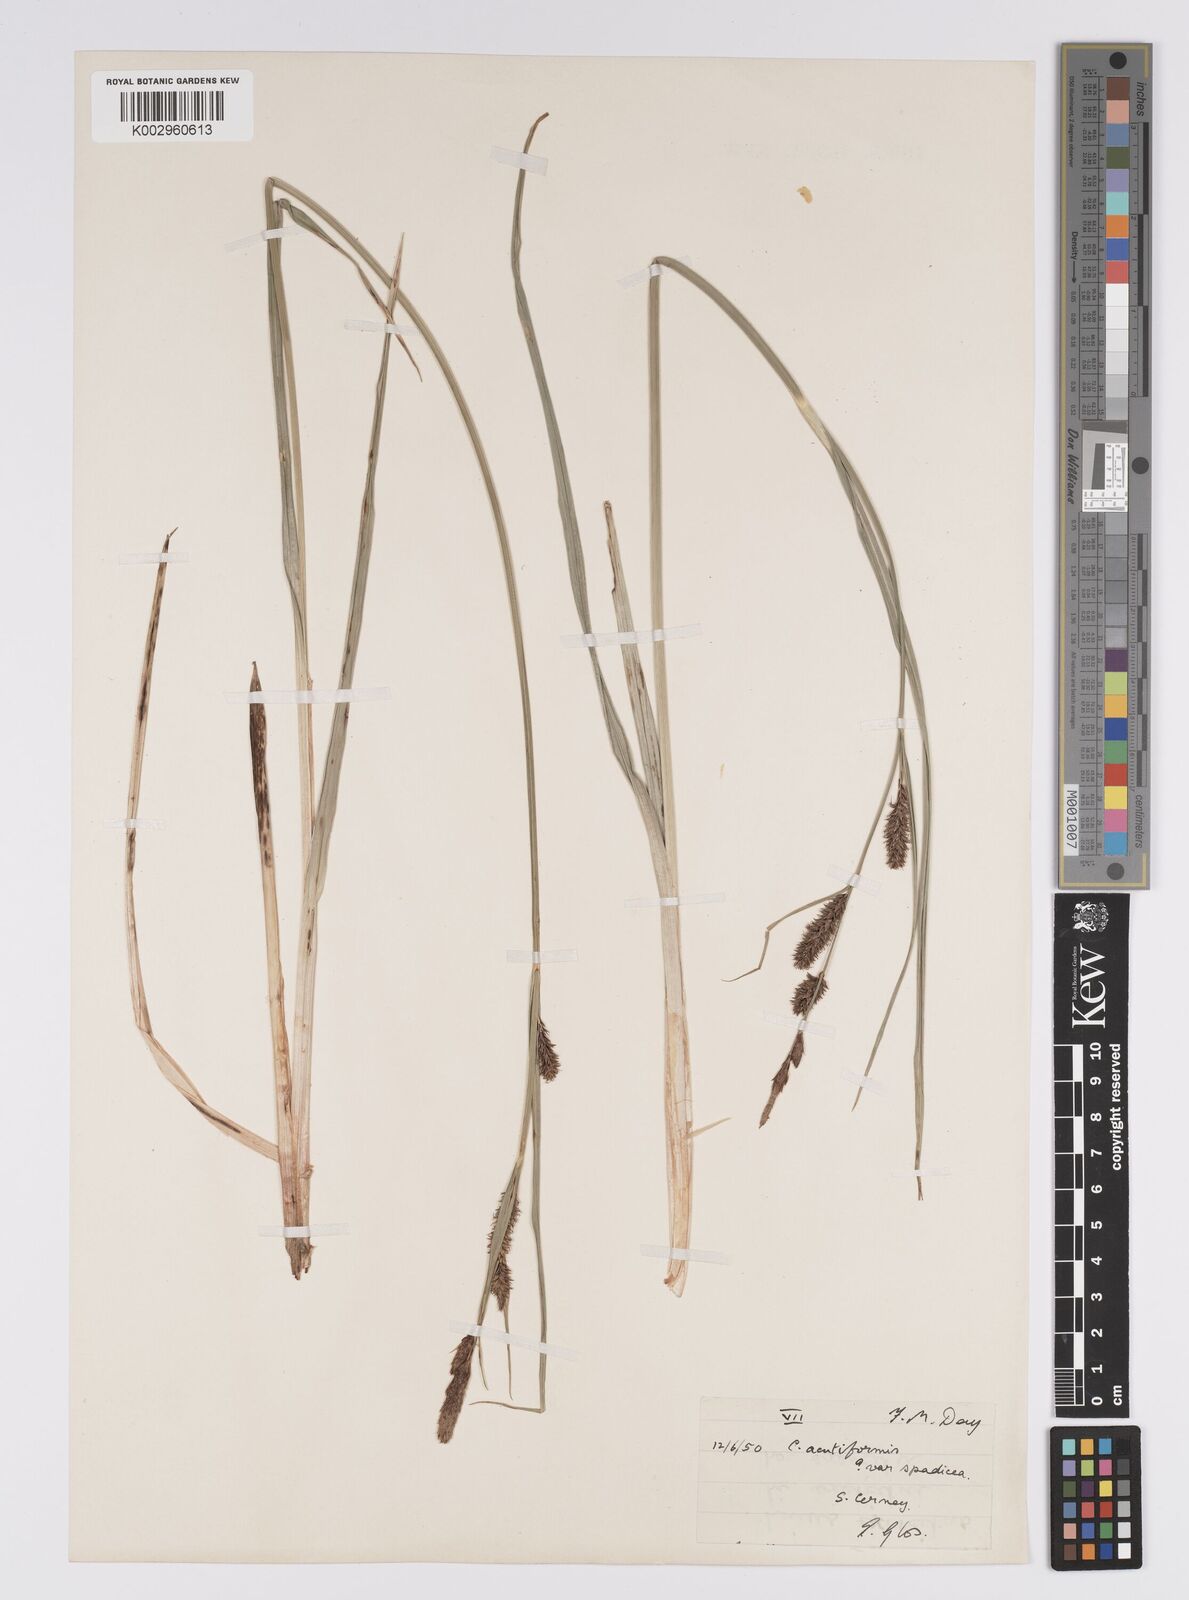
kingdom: Plantae
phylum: Tracheophyta
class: Liliopsida
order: Poales
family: Cyperaceae
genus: Carex
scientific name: Carex acutiformis
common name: Lesser pond-sedge
